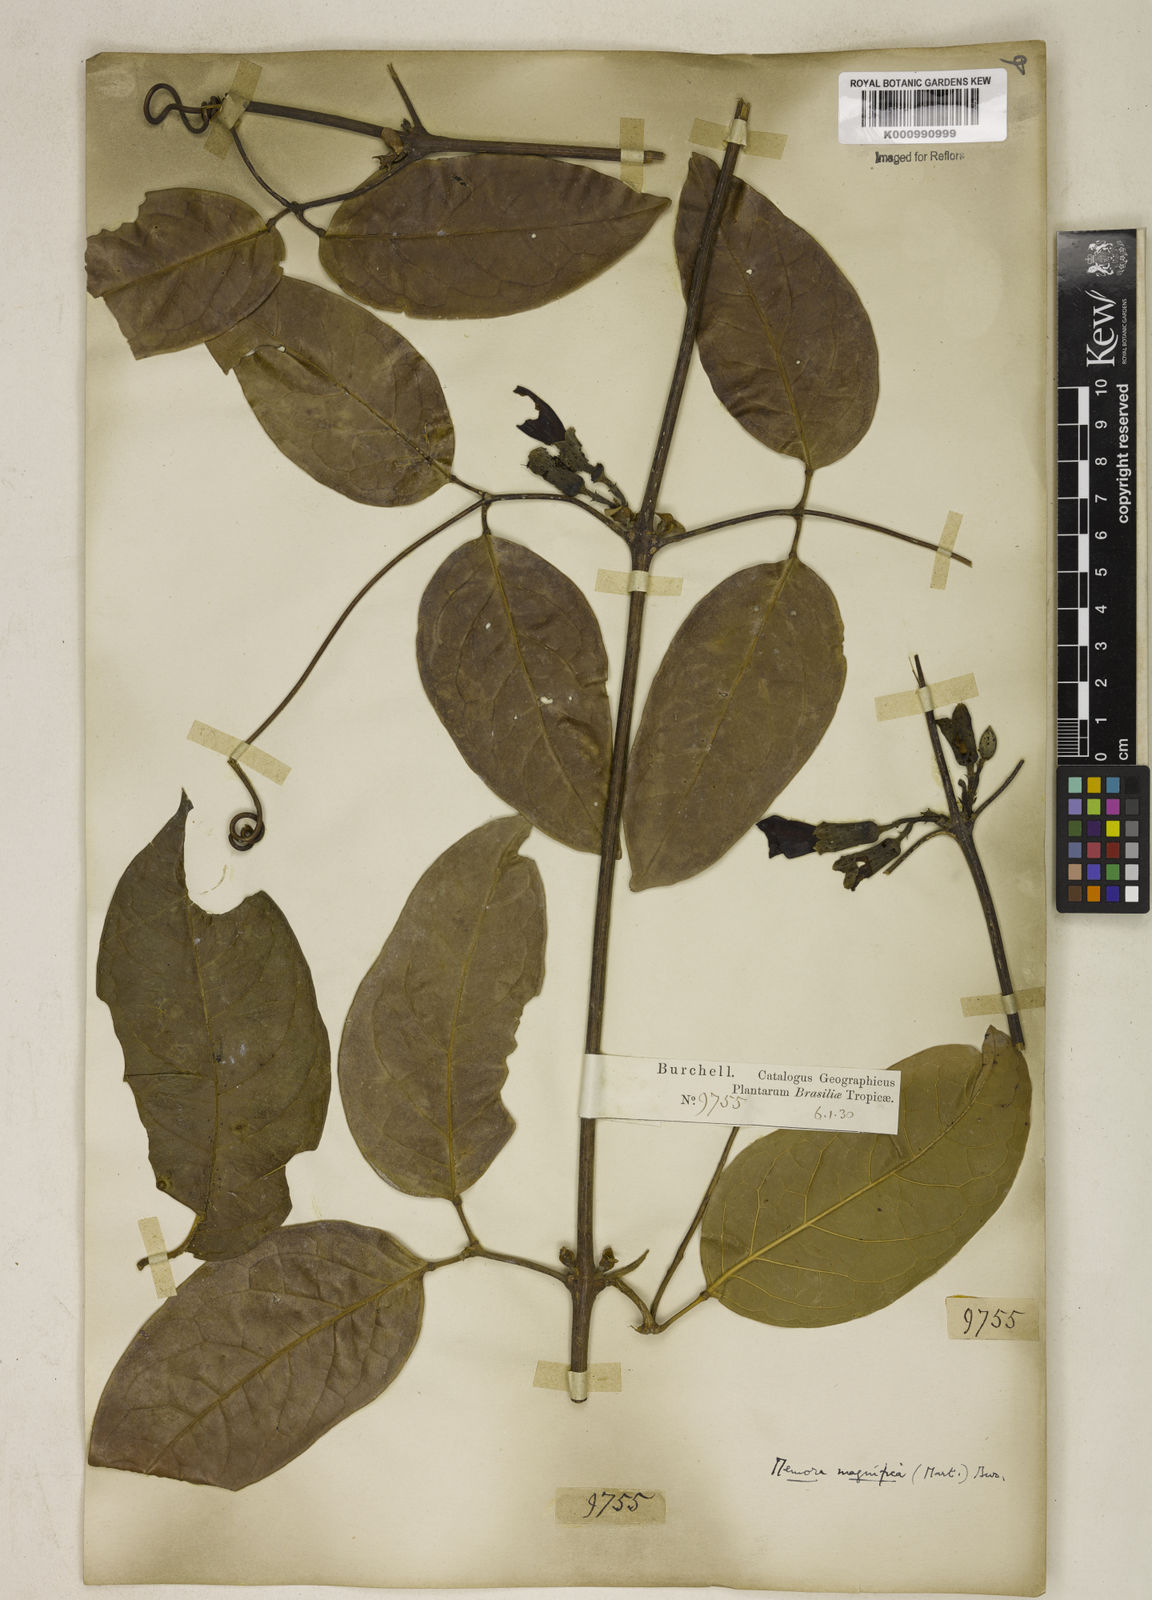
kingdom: Plantae
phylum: Tracheophyta
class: Magnoliopsida
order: Lamiales
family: Bignoniaceae
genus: Adenocalymma
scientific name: Adenocalymma magnificum
